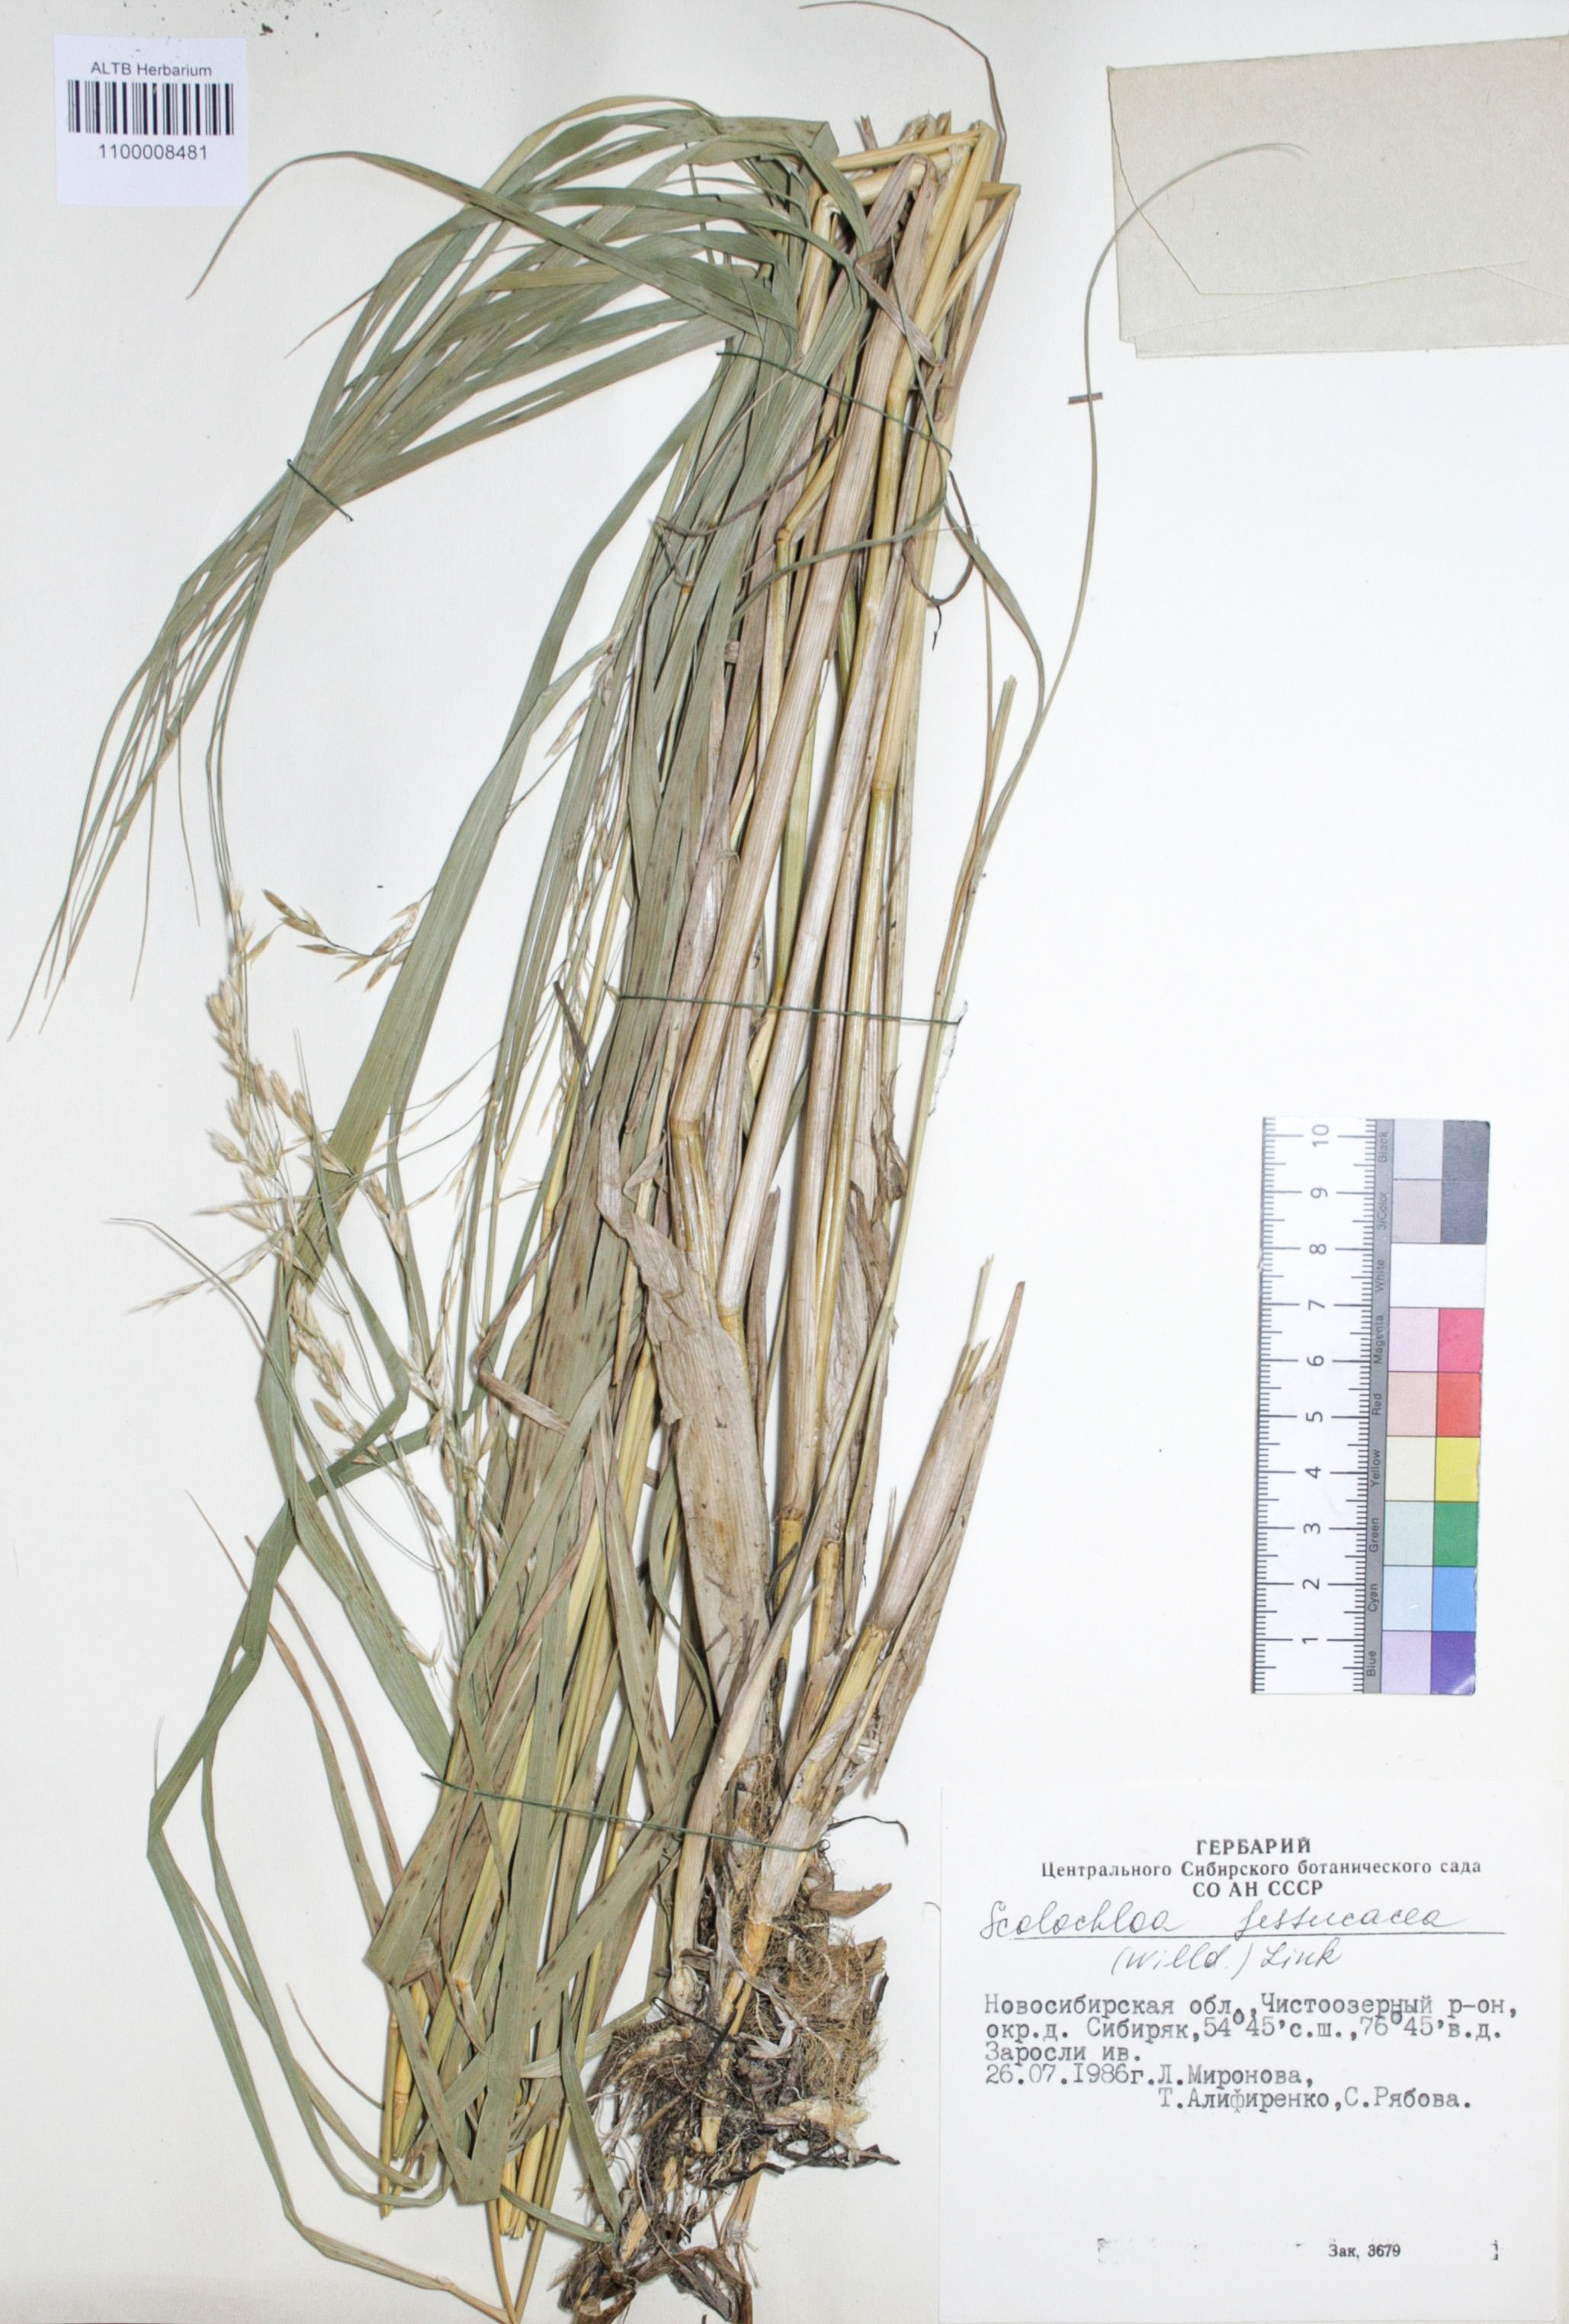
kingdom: Plantae
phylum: Tracheophyta
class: Liliopsida
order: Poales
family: Poaceae
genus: Scolochloa
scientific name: Scolochloa festucacea
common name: Common rivergrass
